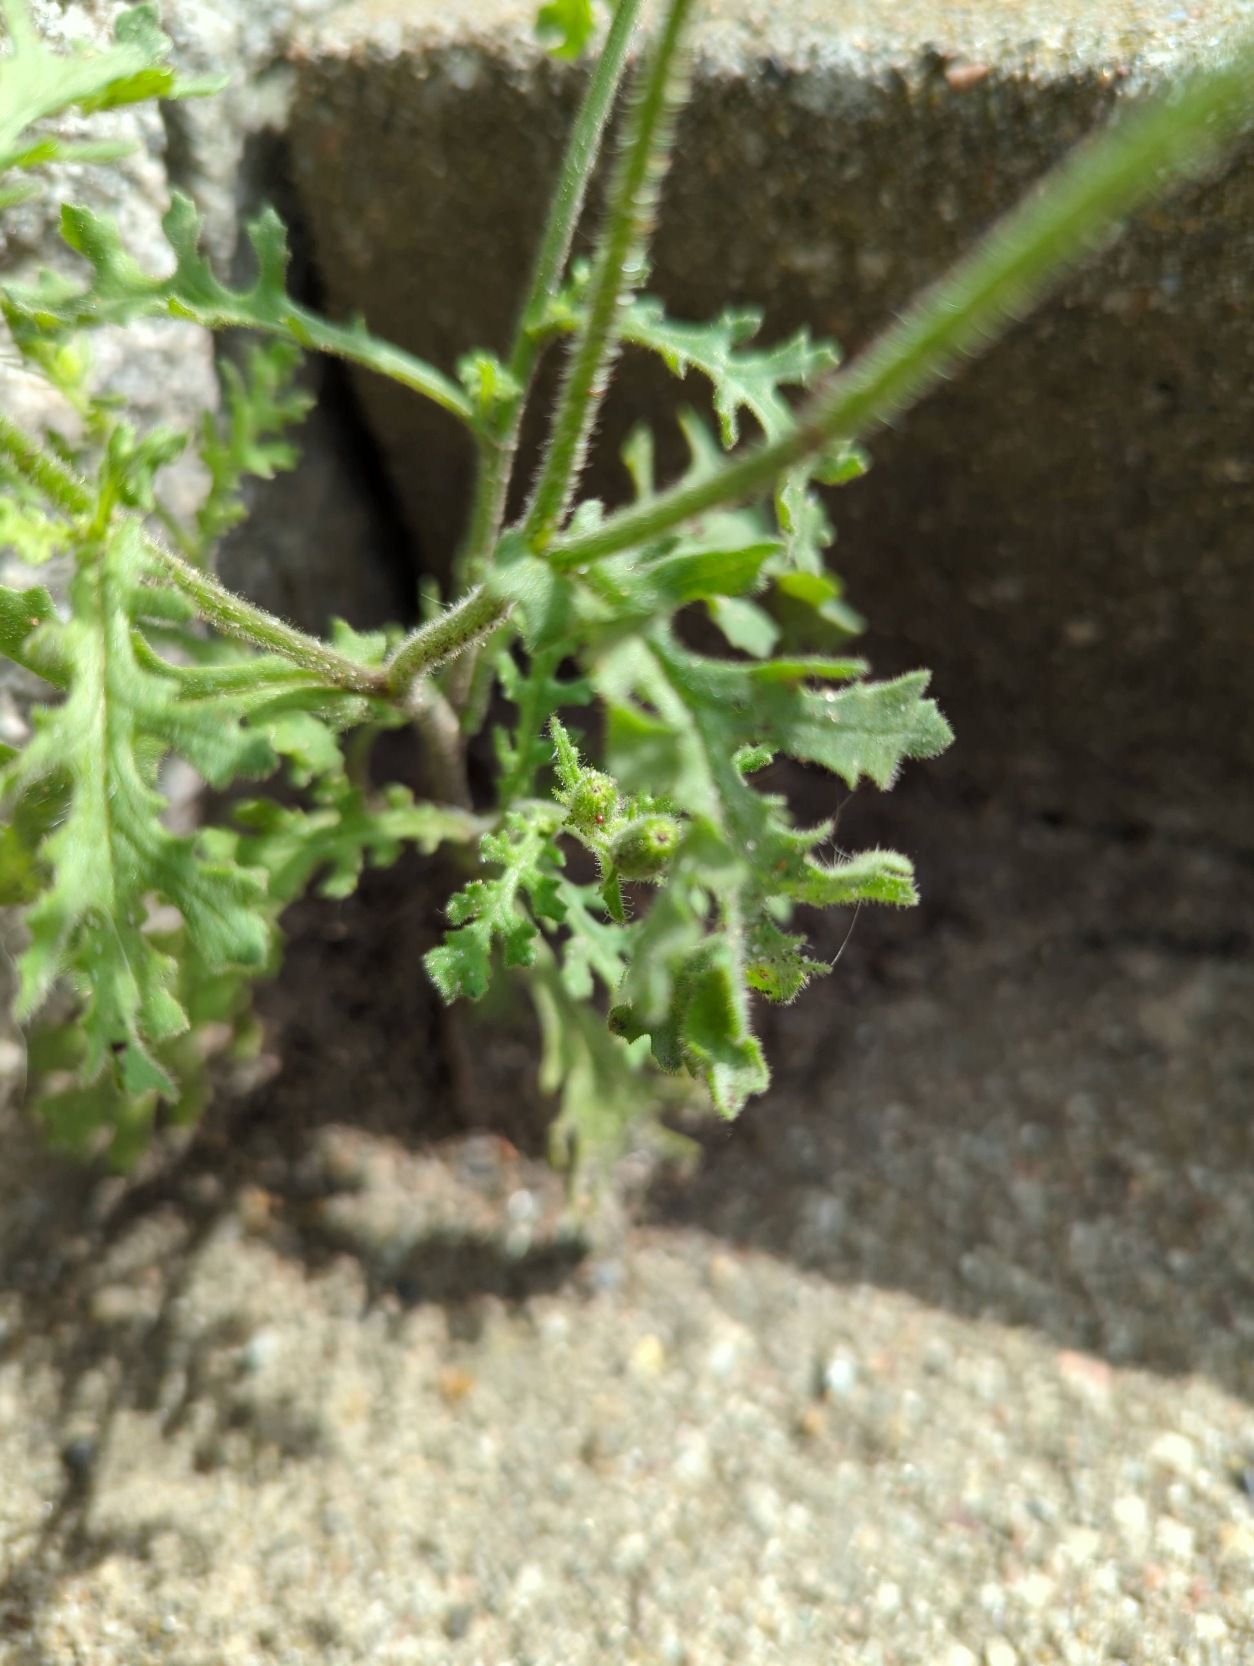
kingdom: Plantae
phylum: Tracheophyta
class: Magnoliopsida
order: Asterales
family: Asteraceae
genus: Senecio
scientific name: Senecio viscosus
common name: Klæbrig brandbæger
